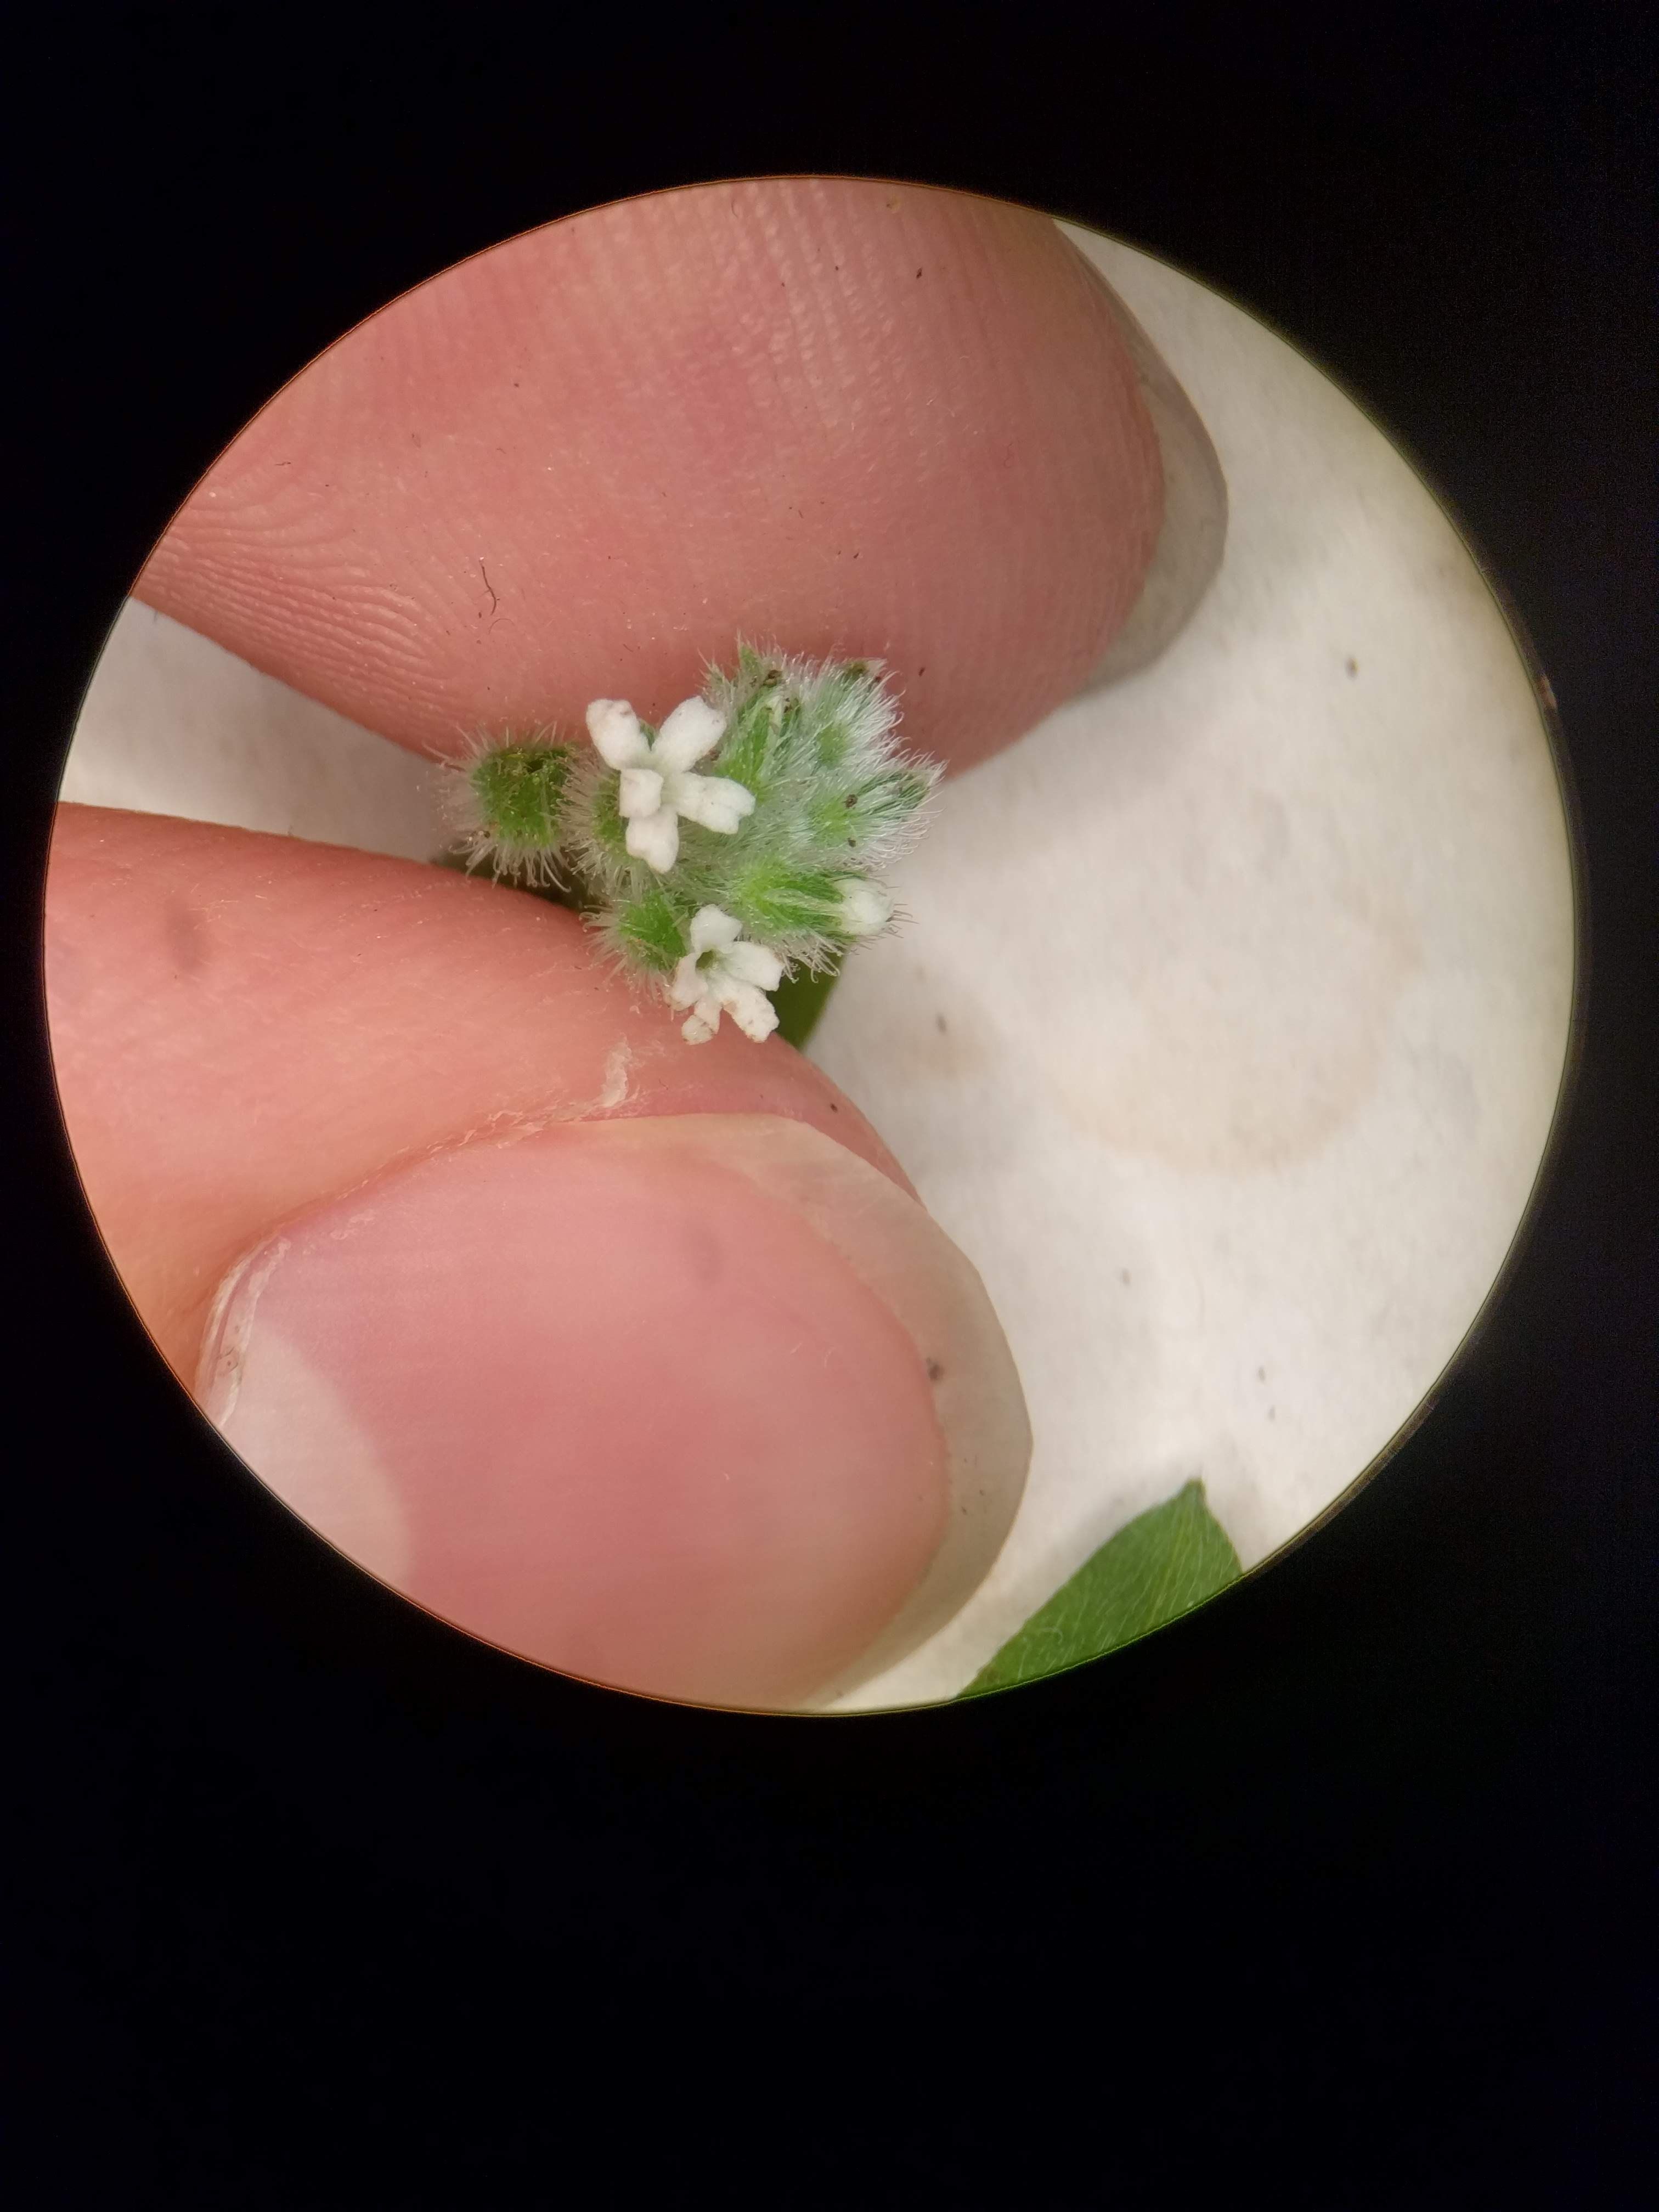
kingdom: Plantae
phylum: Tracheophyta
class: Magnoliopsida
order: Boraginales
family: Boraginaceae
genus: Myosotis
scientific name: Myosotis verna
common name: Early forget-me-not
